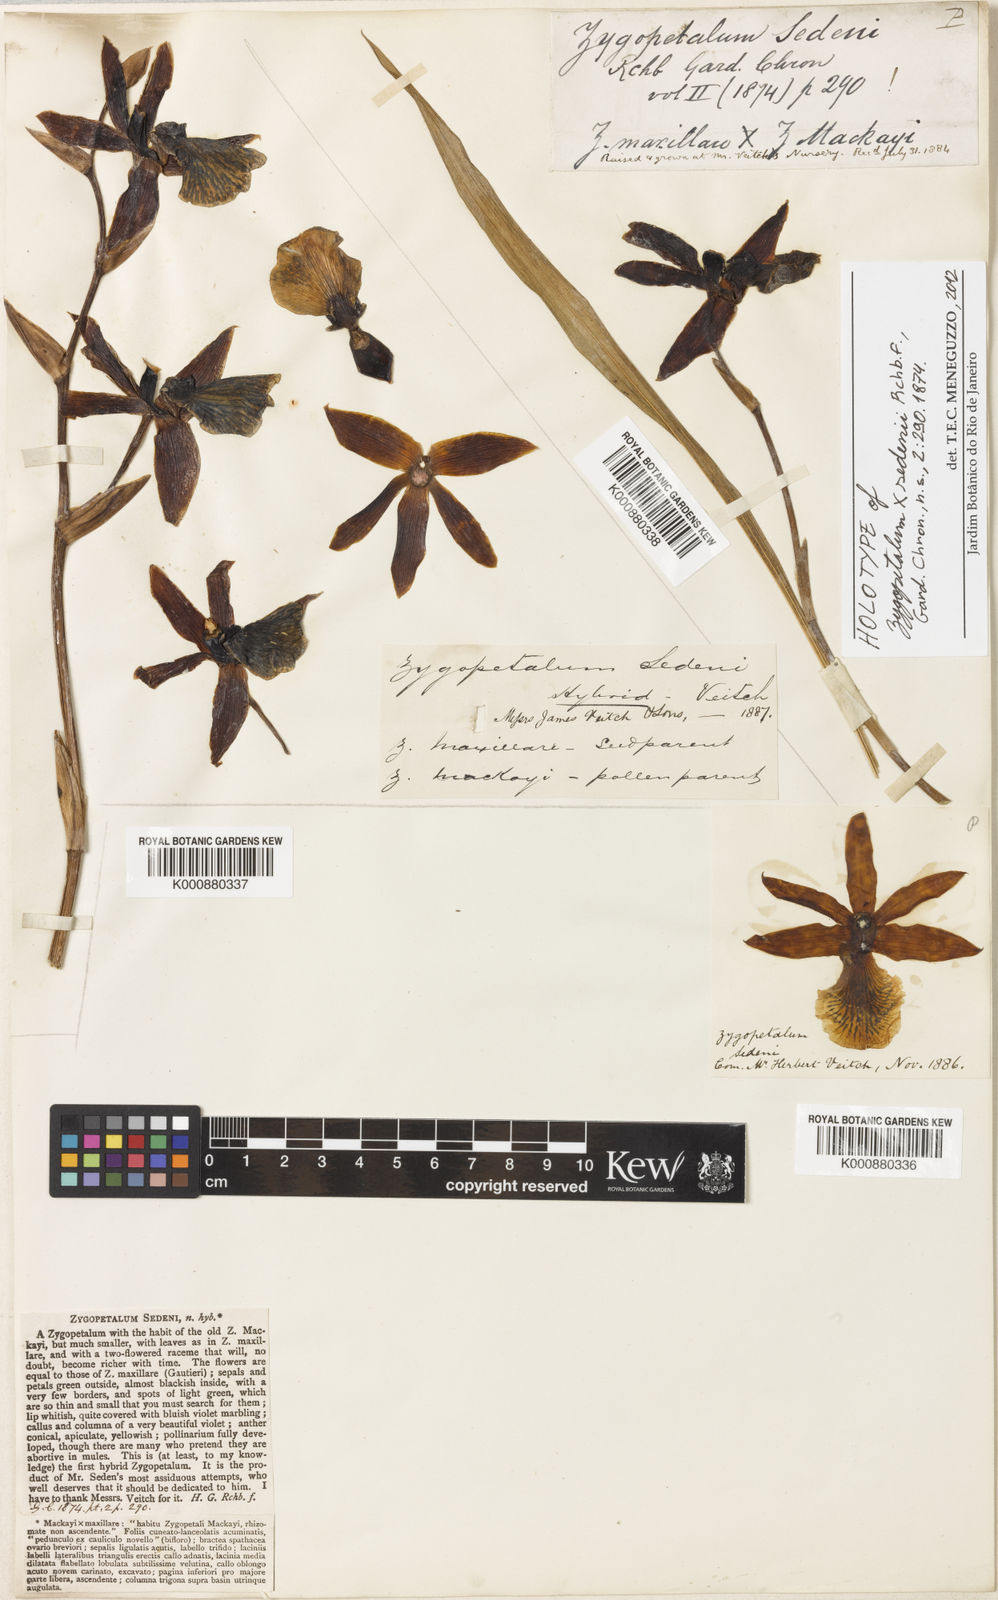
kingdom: Plantae
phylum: Tracheophyta
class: Liliopsida
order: Asparagales
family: Orchidaceae
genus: Zygopetalum
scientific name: Zygopetalum sedenii
